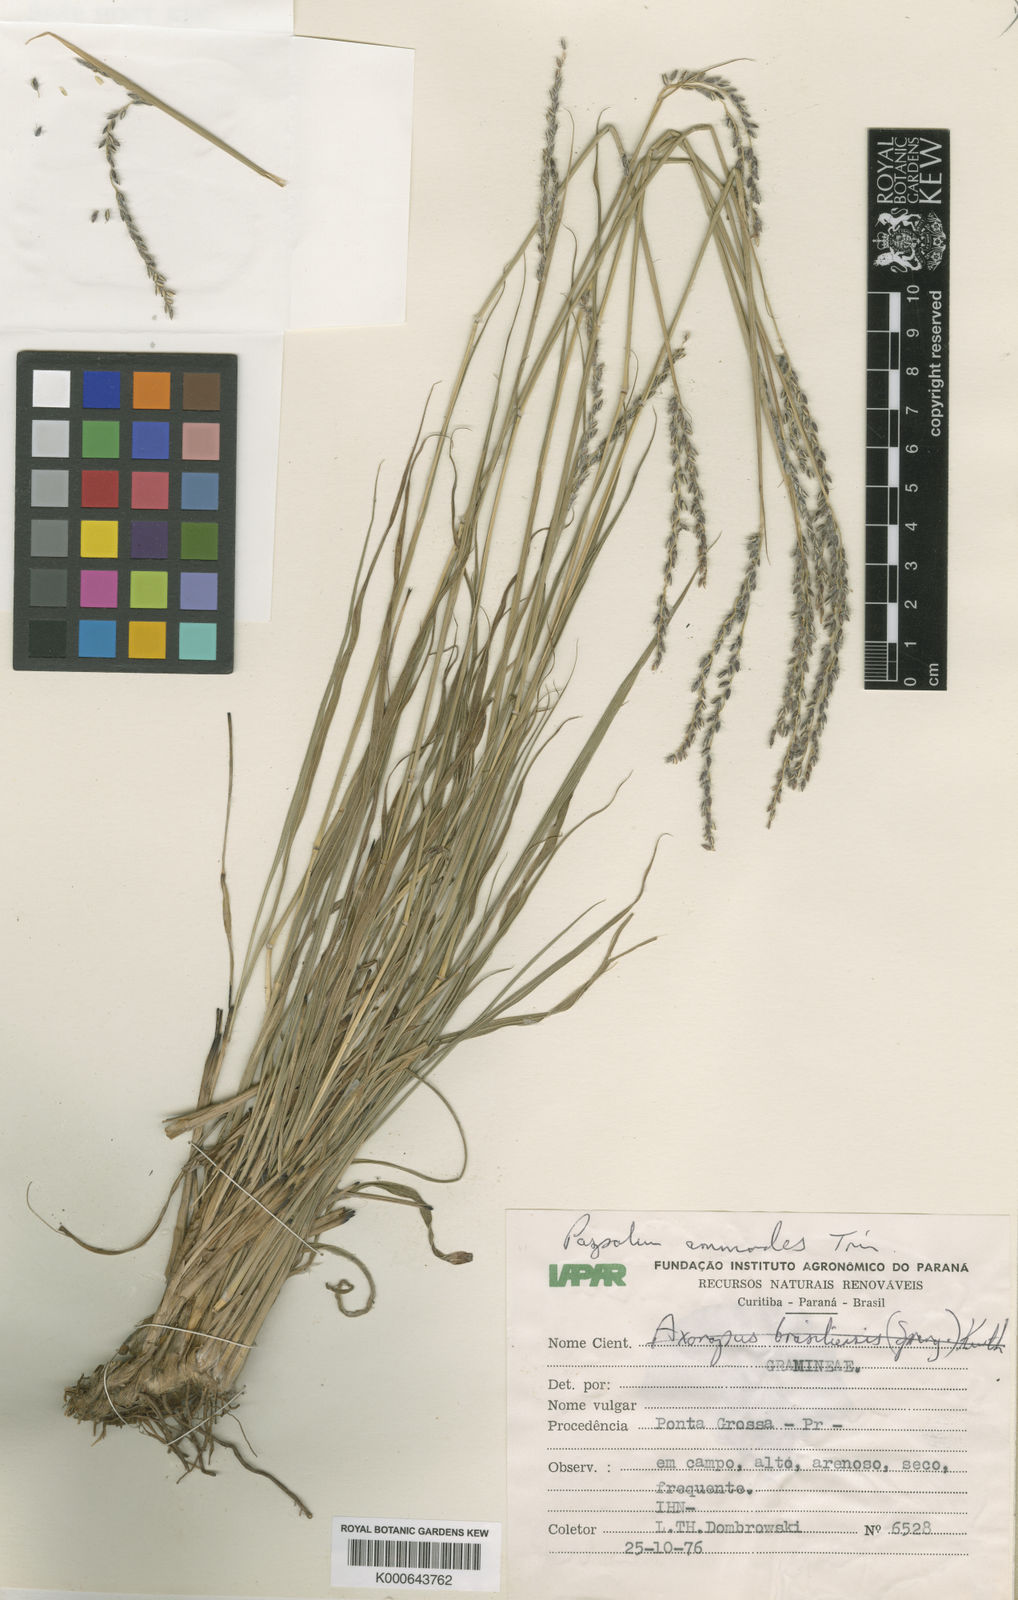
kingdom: Plantae
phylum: Tracheophyta
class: Liliopsida
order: Poales
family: Poaceae
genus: Paspalum
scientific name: Paspalum lachneum
